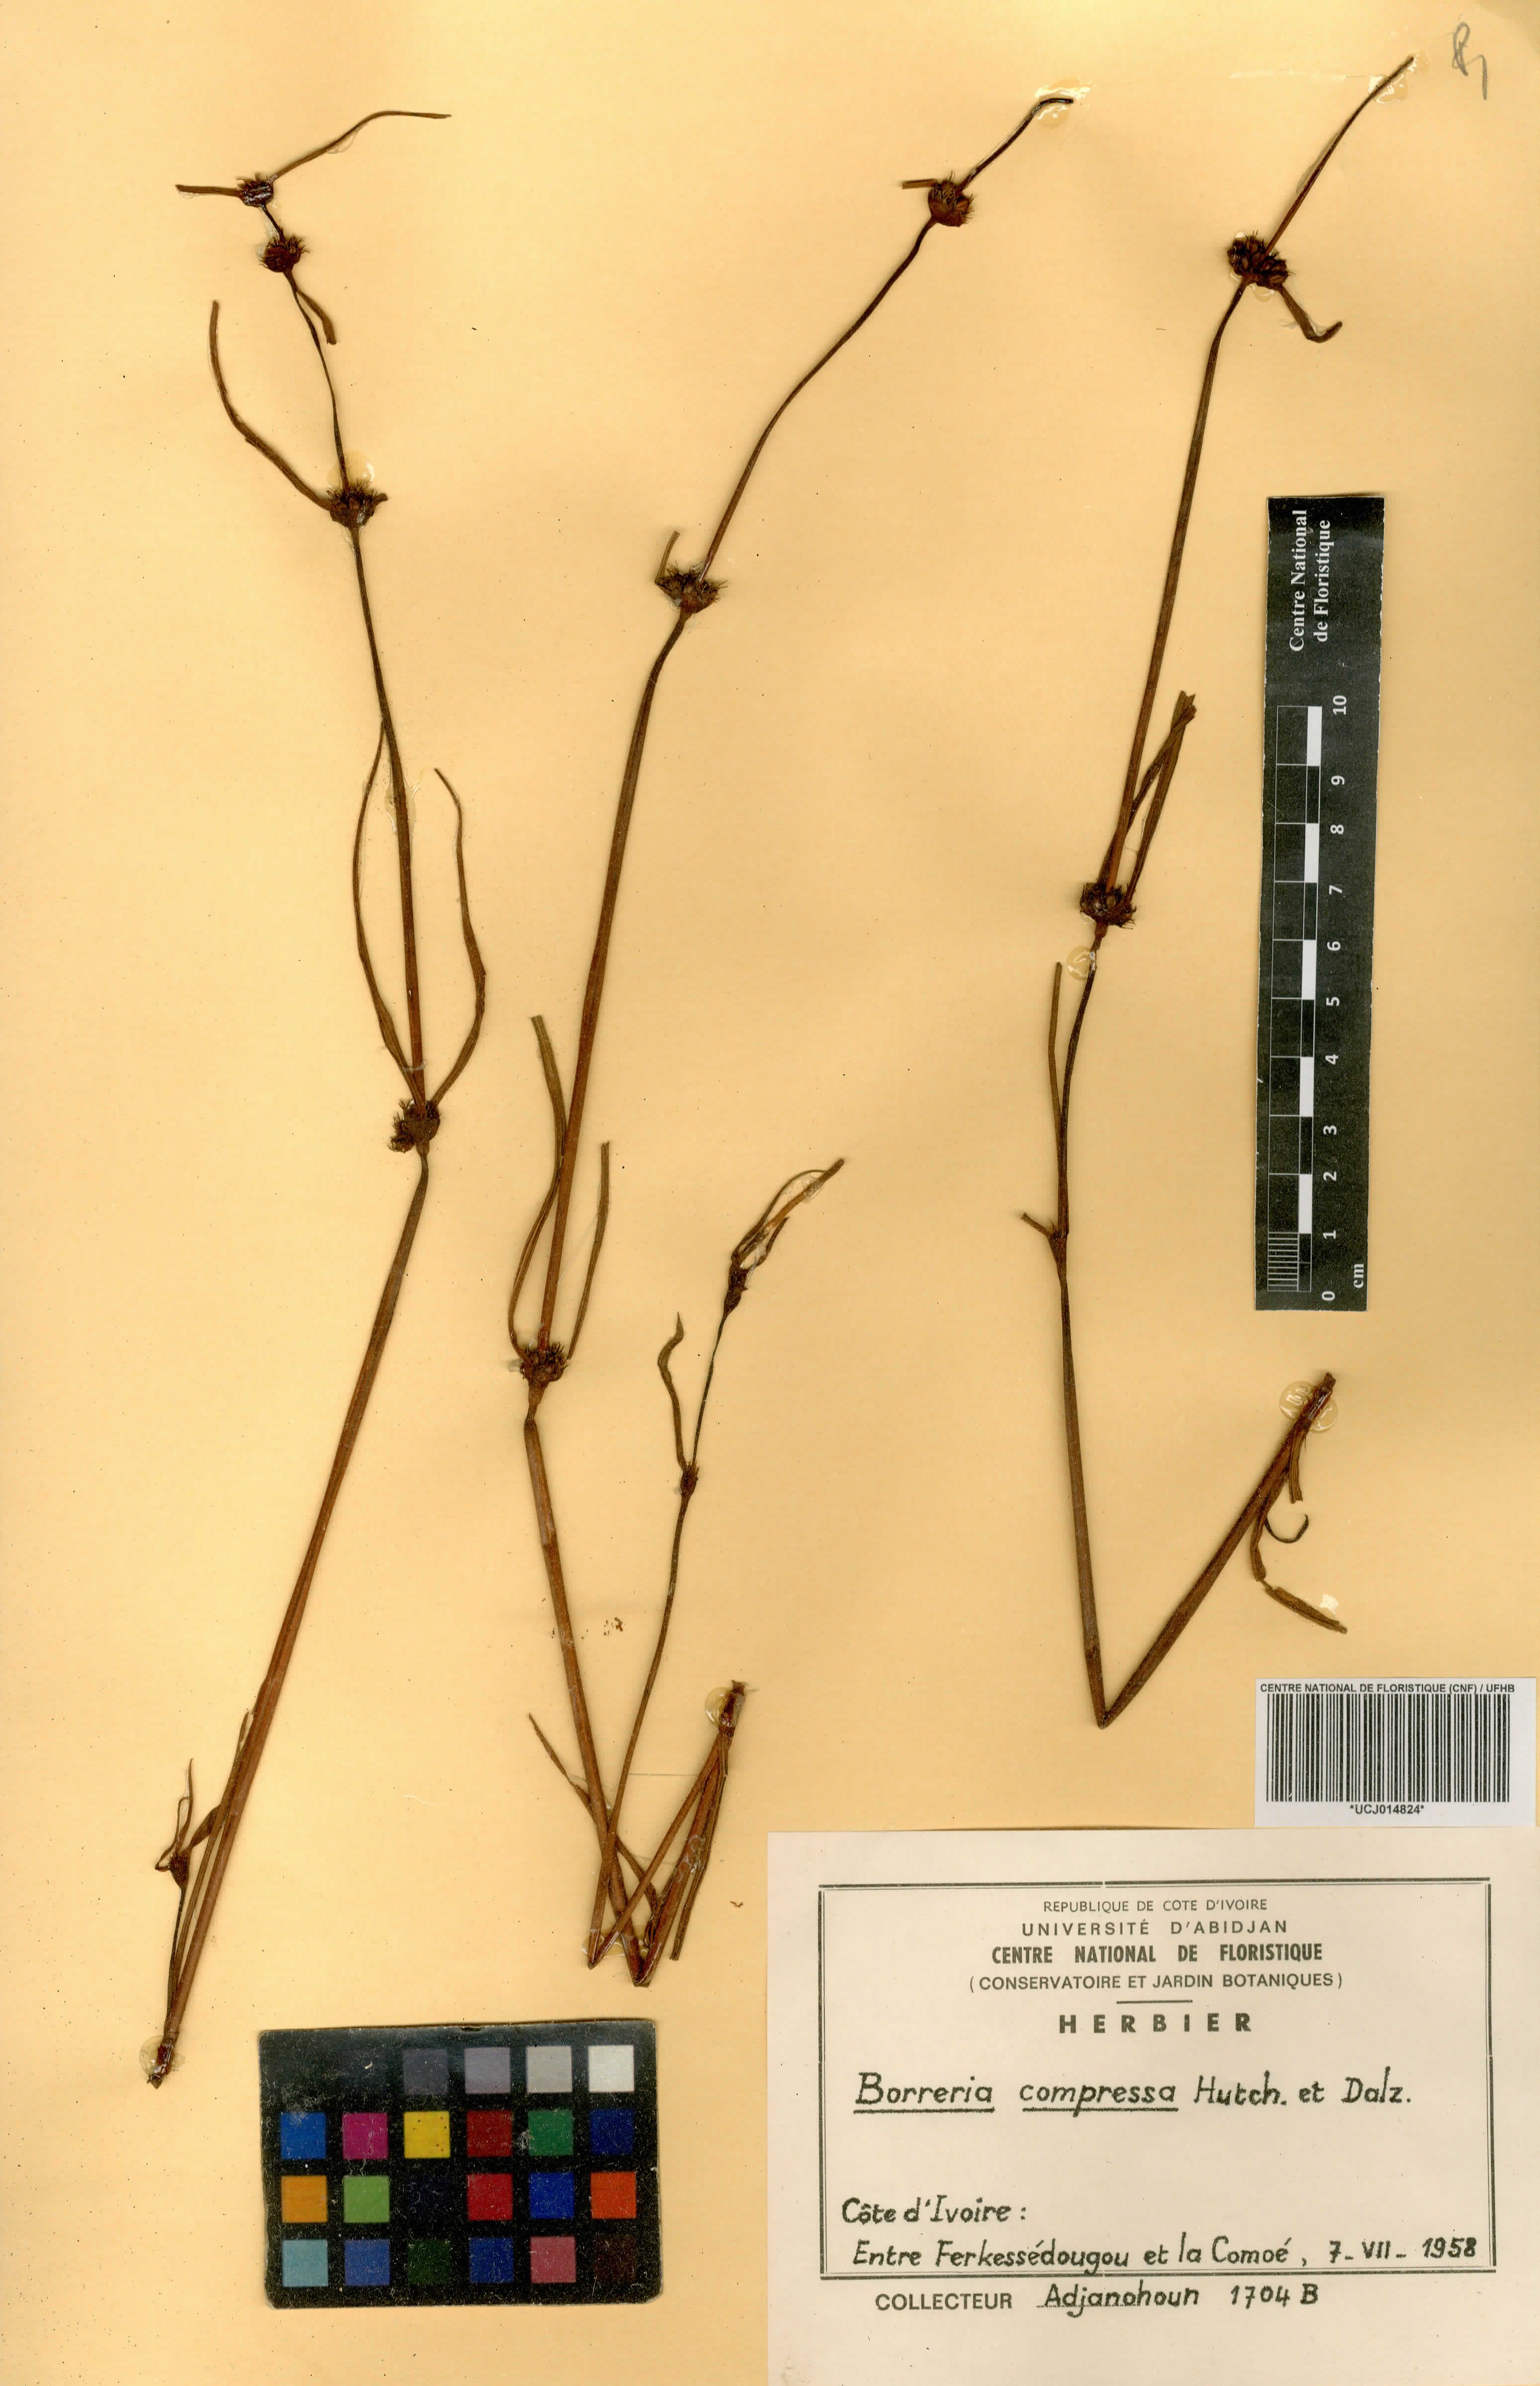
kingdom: Plantae
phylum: Tracheophyta
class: Magnoliopsida
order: Gentianales
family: Rubiaceae
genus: Spermacoce
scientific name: Spermacoce hepperiana
